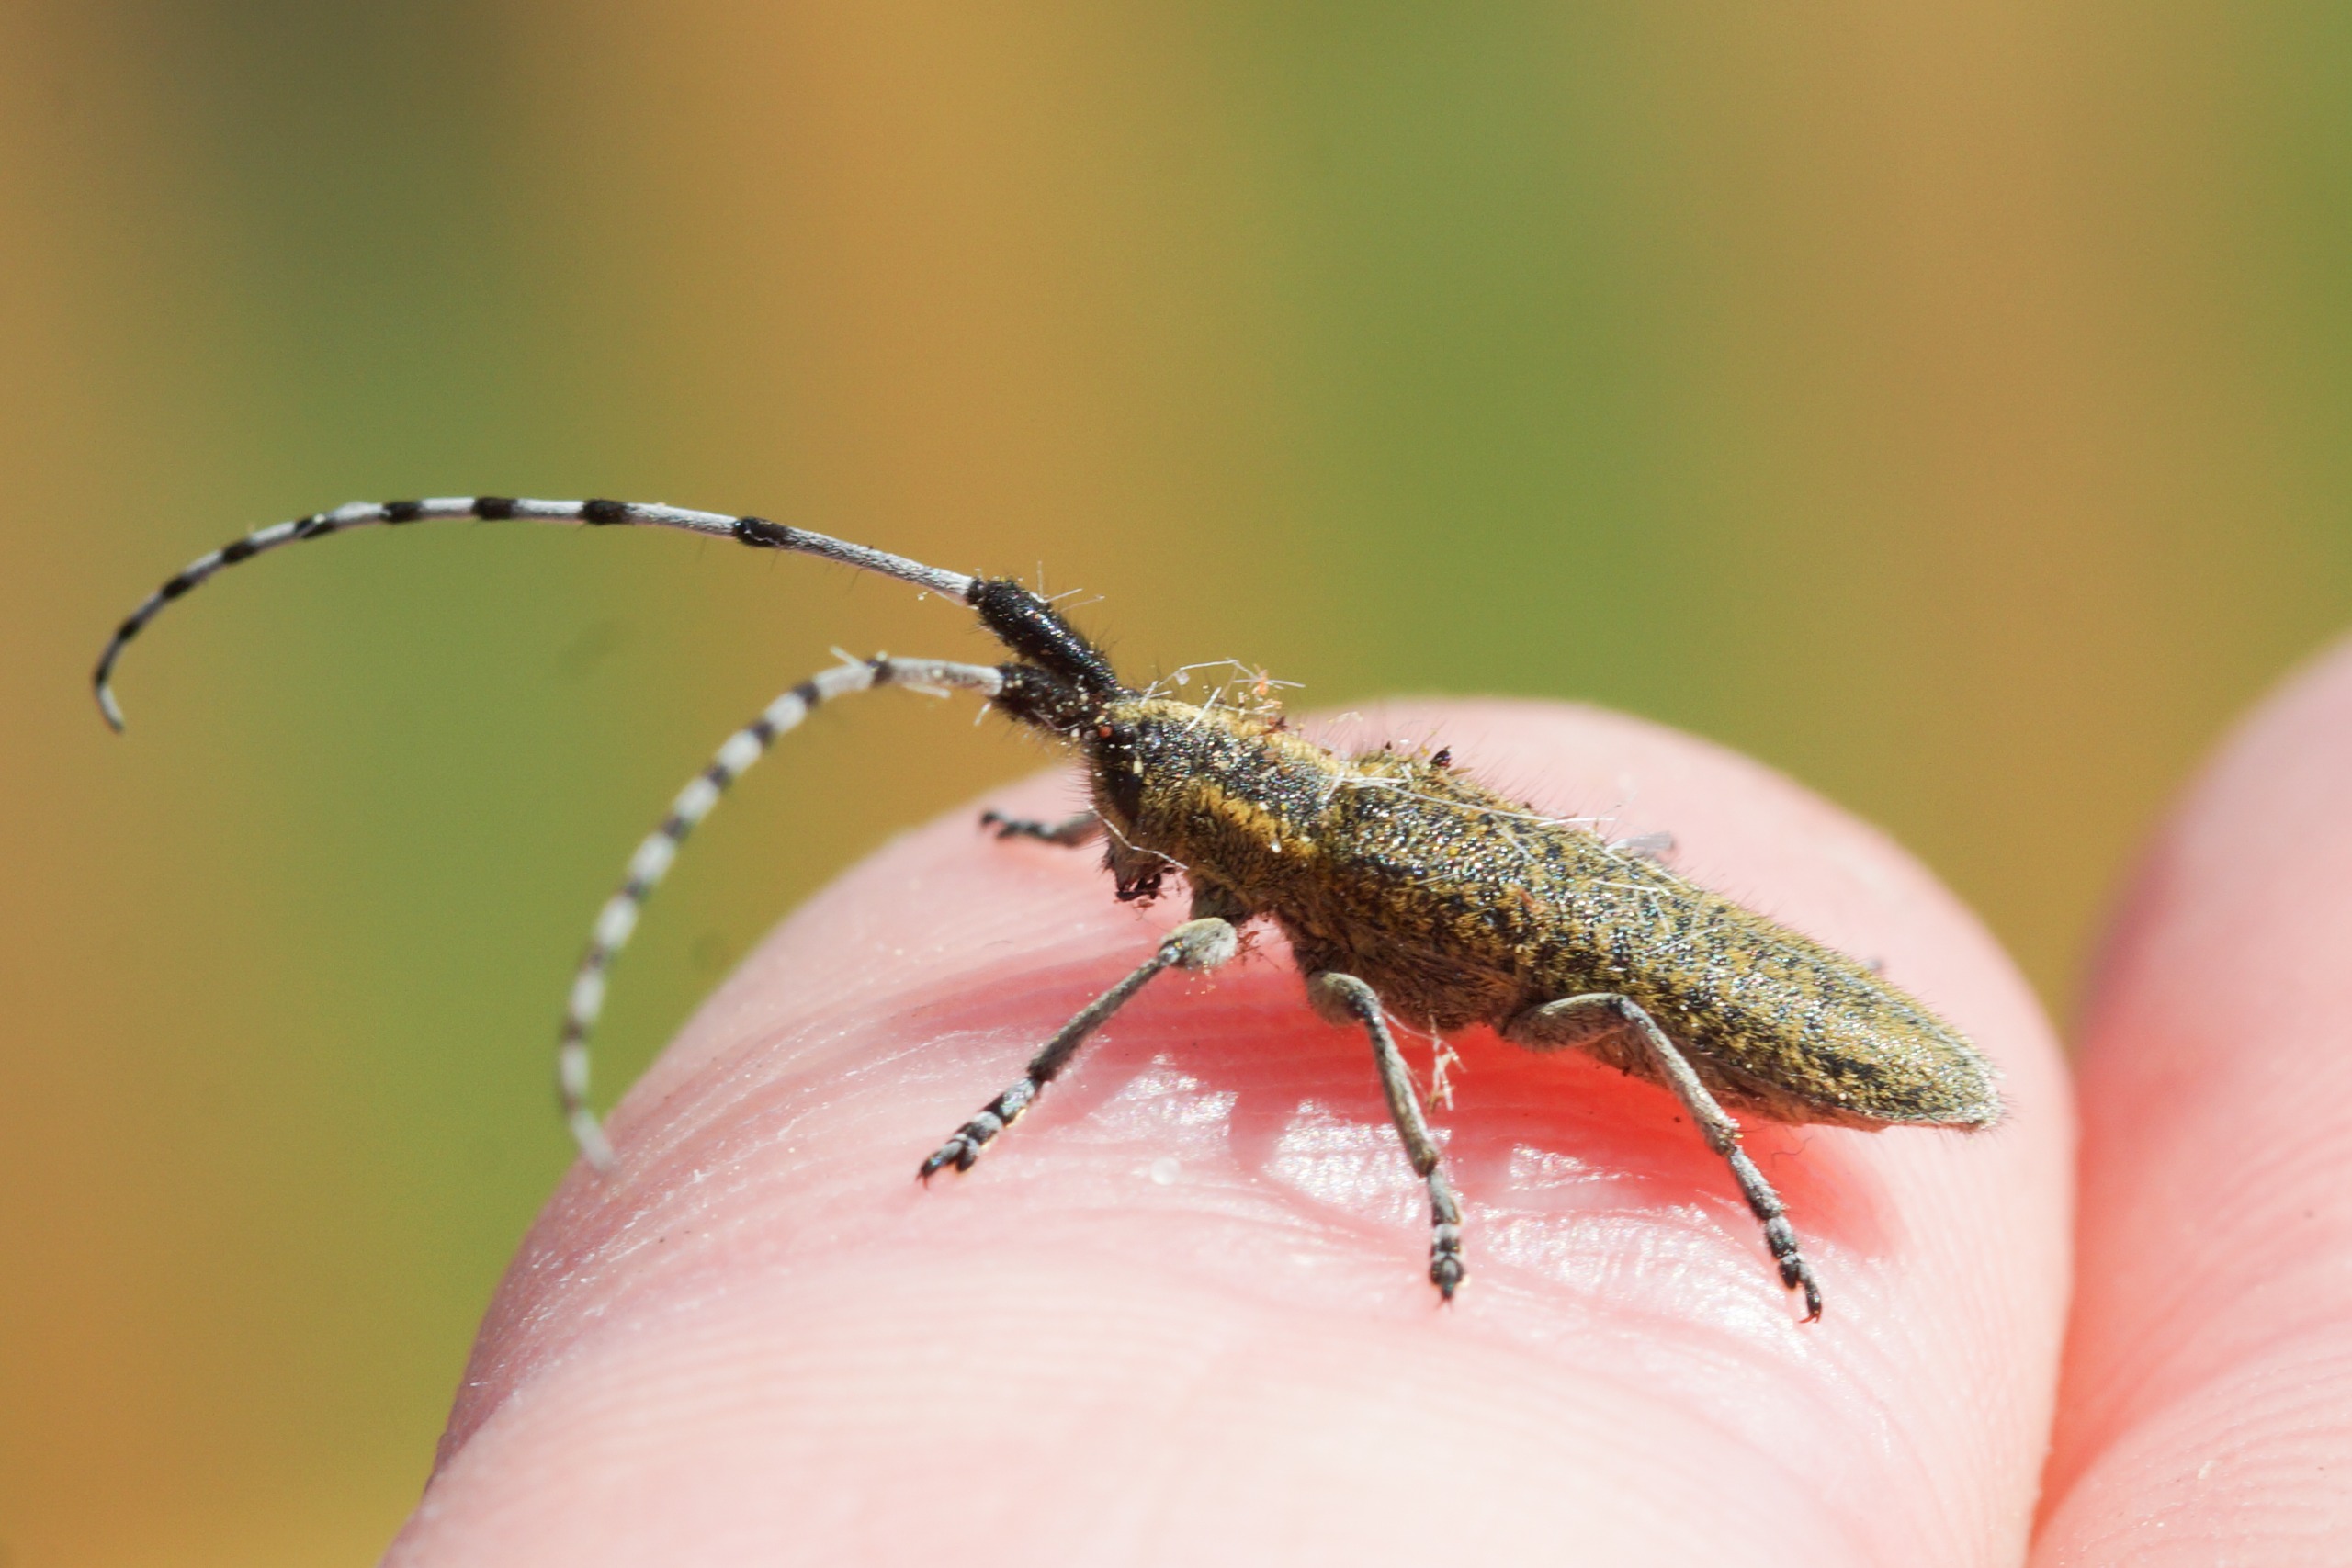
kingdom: Animalia
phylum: Arthropoda
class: Insecta
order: Coleoptera
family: Cerambycidae
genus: Agapanthia
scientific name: Agapanthia villosoviridescens
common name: Tidselbuk
